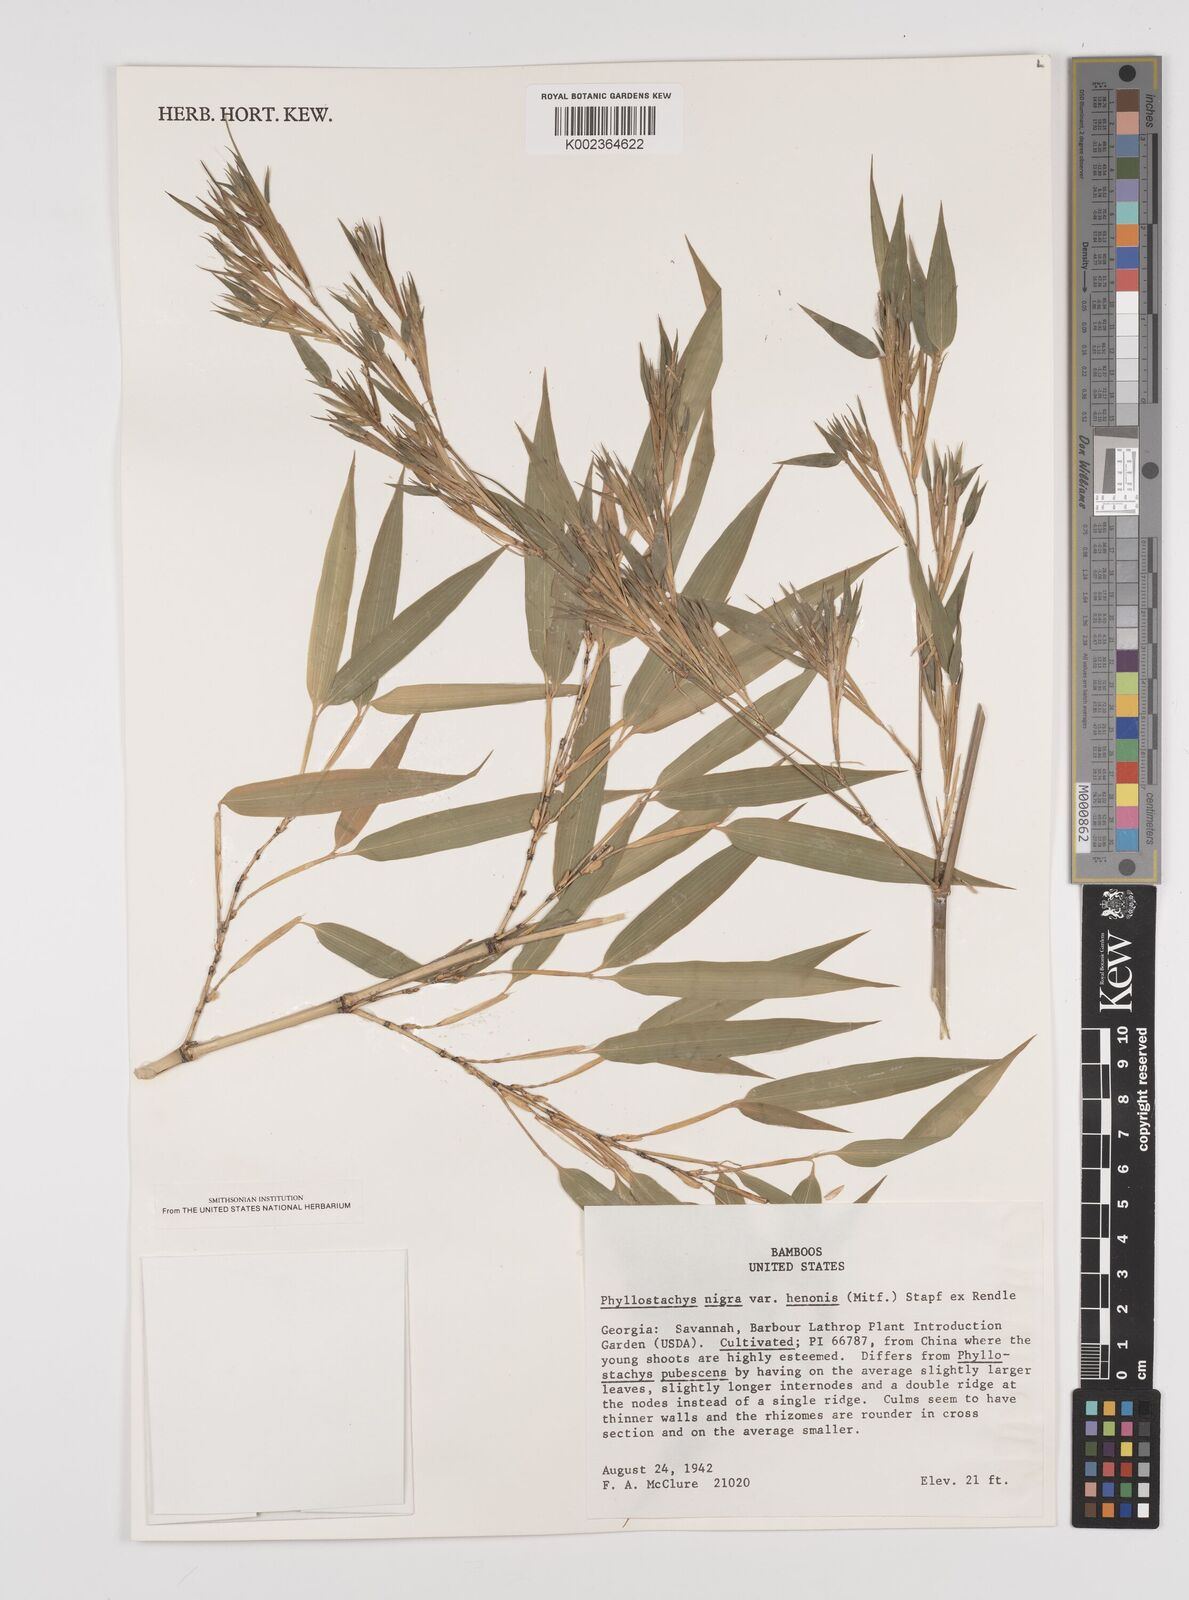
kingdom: Plantae
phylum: Tracheophyta
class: Liliopsida
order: Poales
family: Poaceae
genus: Phyllostachys
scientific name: Phyllostachys nigra
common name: Black bamboo
